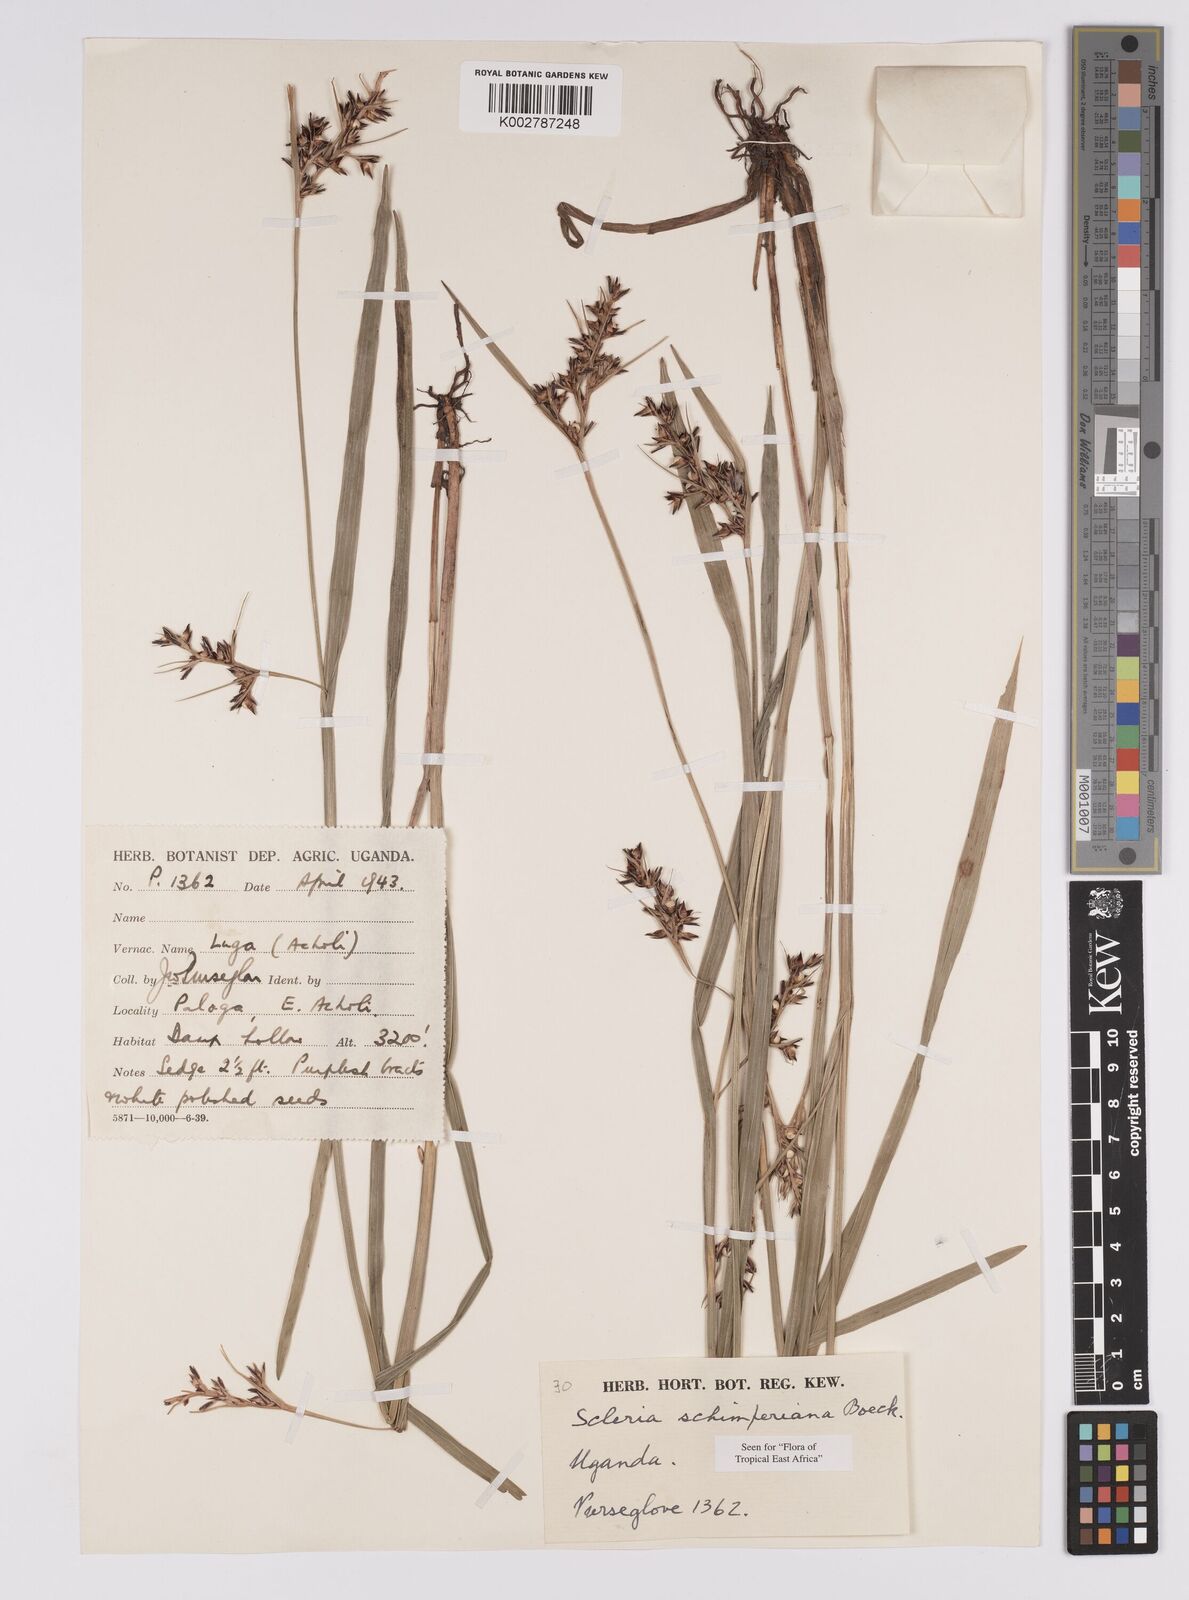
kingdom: Plantae
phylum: Tracheophyta
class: Liliopsida
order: Poales
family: Cyperaceae
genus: Scleria
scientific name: Scleria schimperiana
